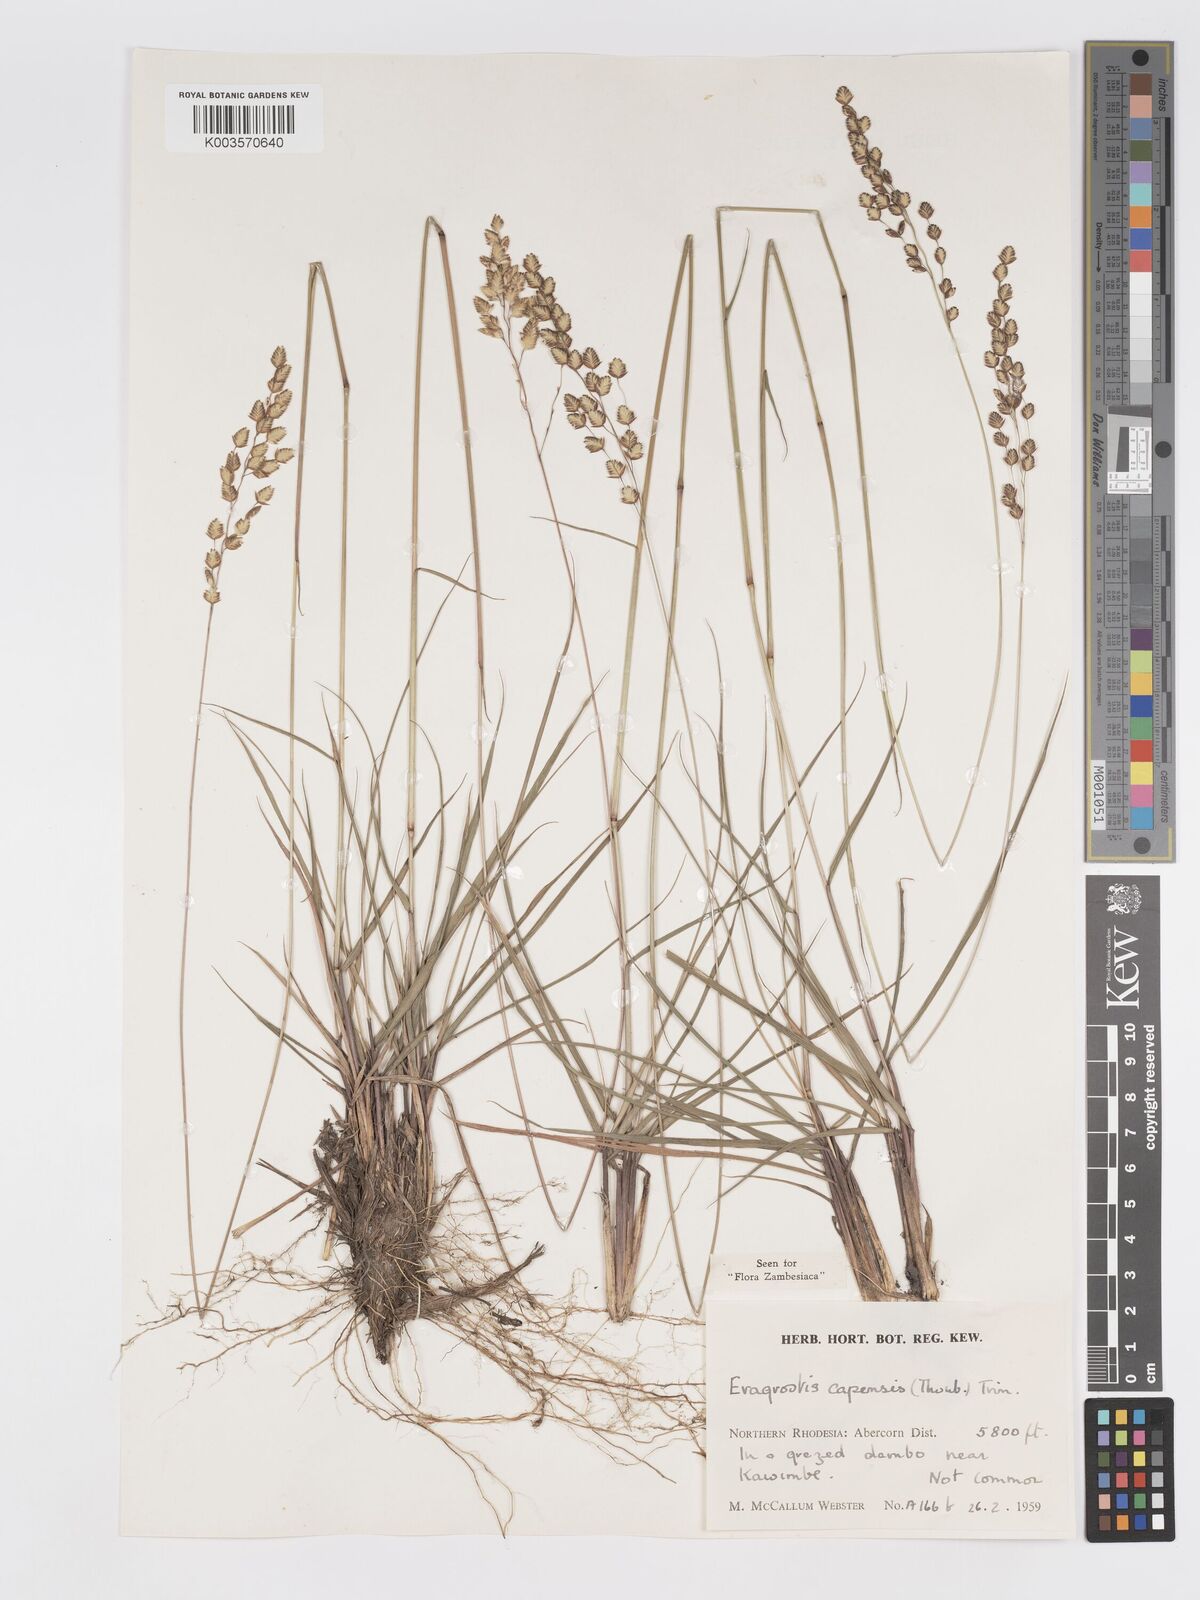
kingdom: Plantae
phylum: Tracheophyta
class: Liliopsida
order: Poales
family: Poaceae
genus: Eragrostis
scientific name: Eragrostis capensis
